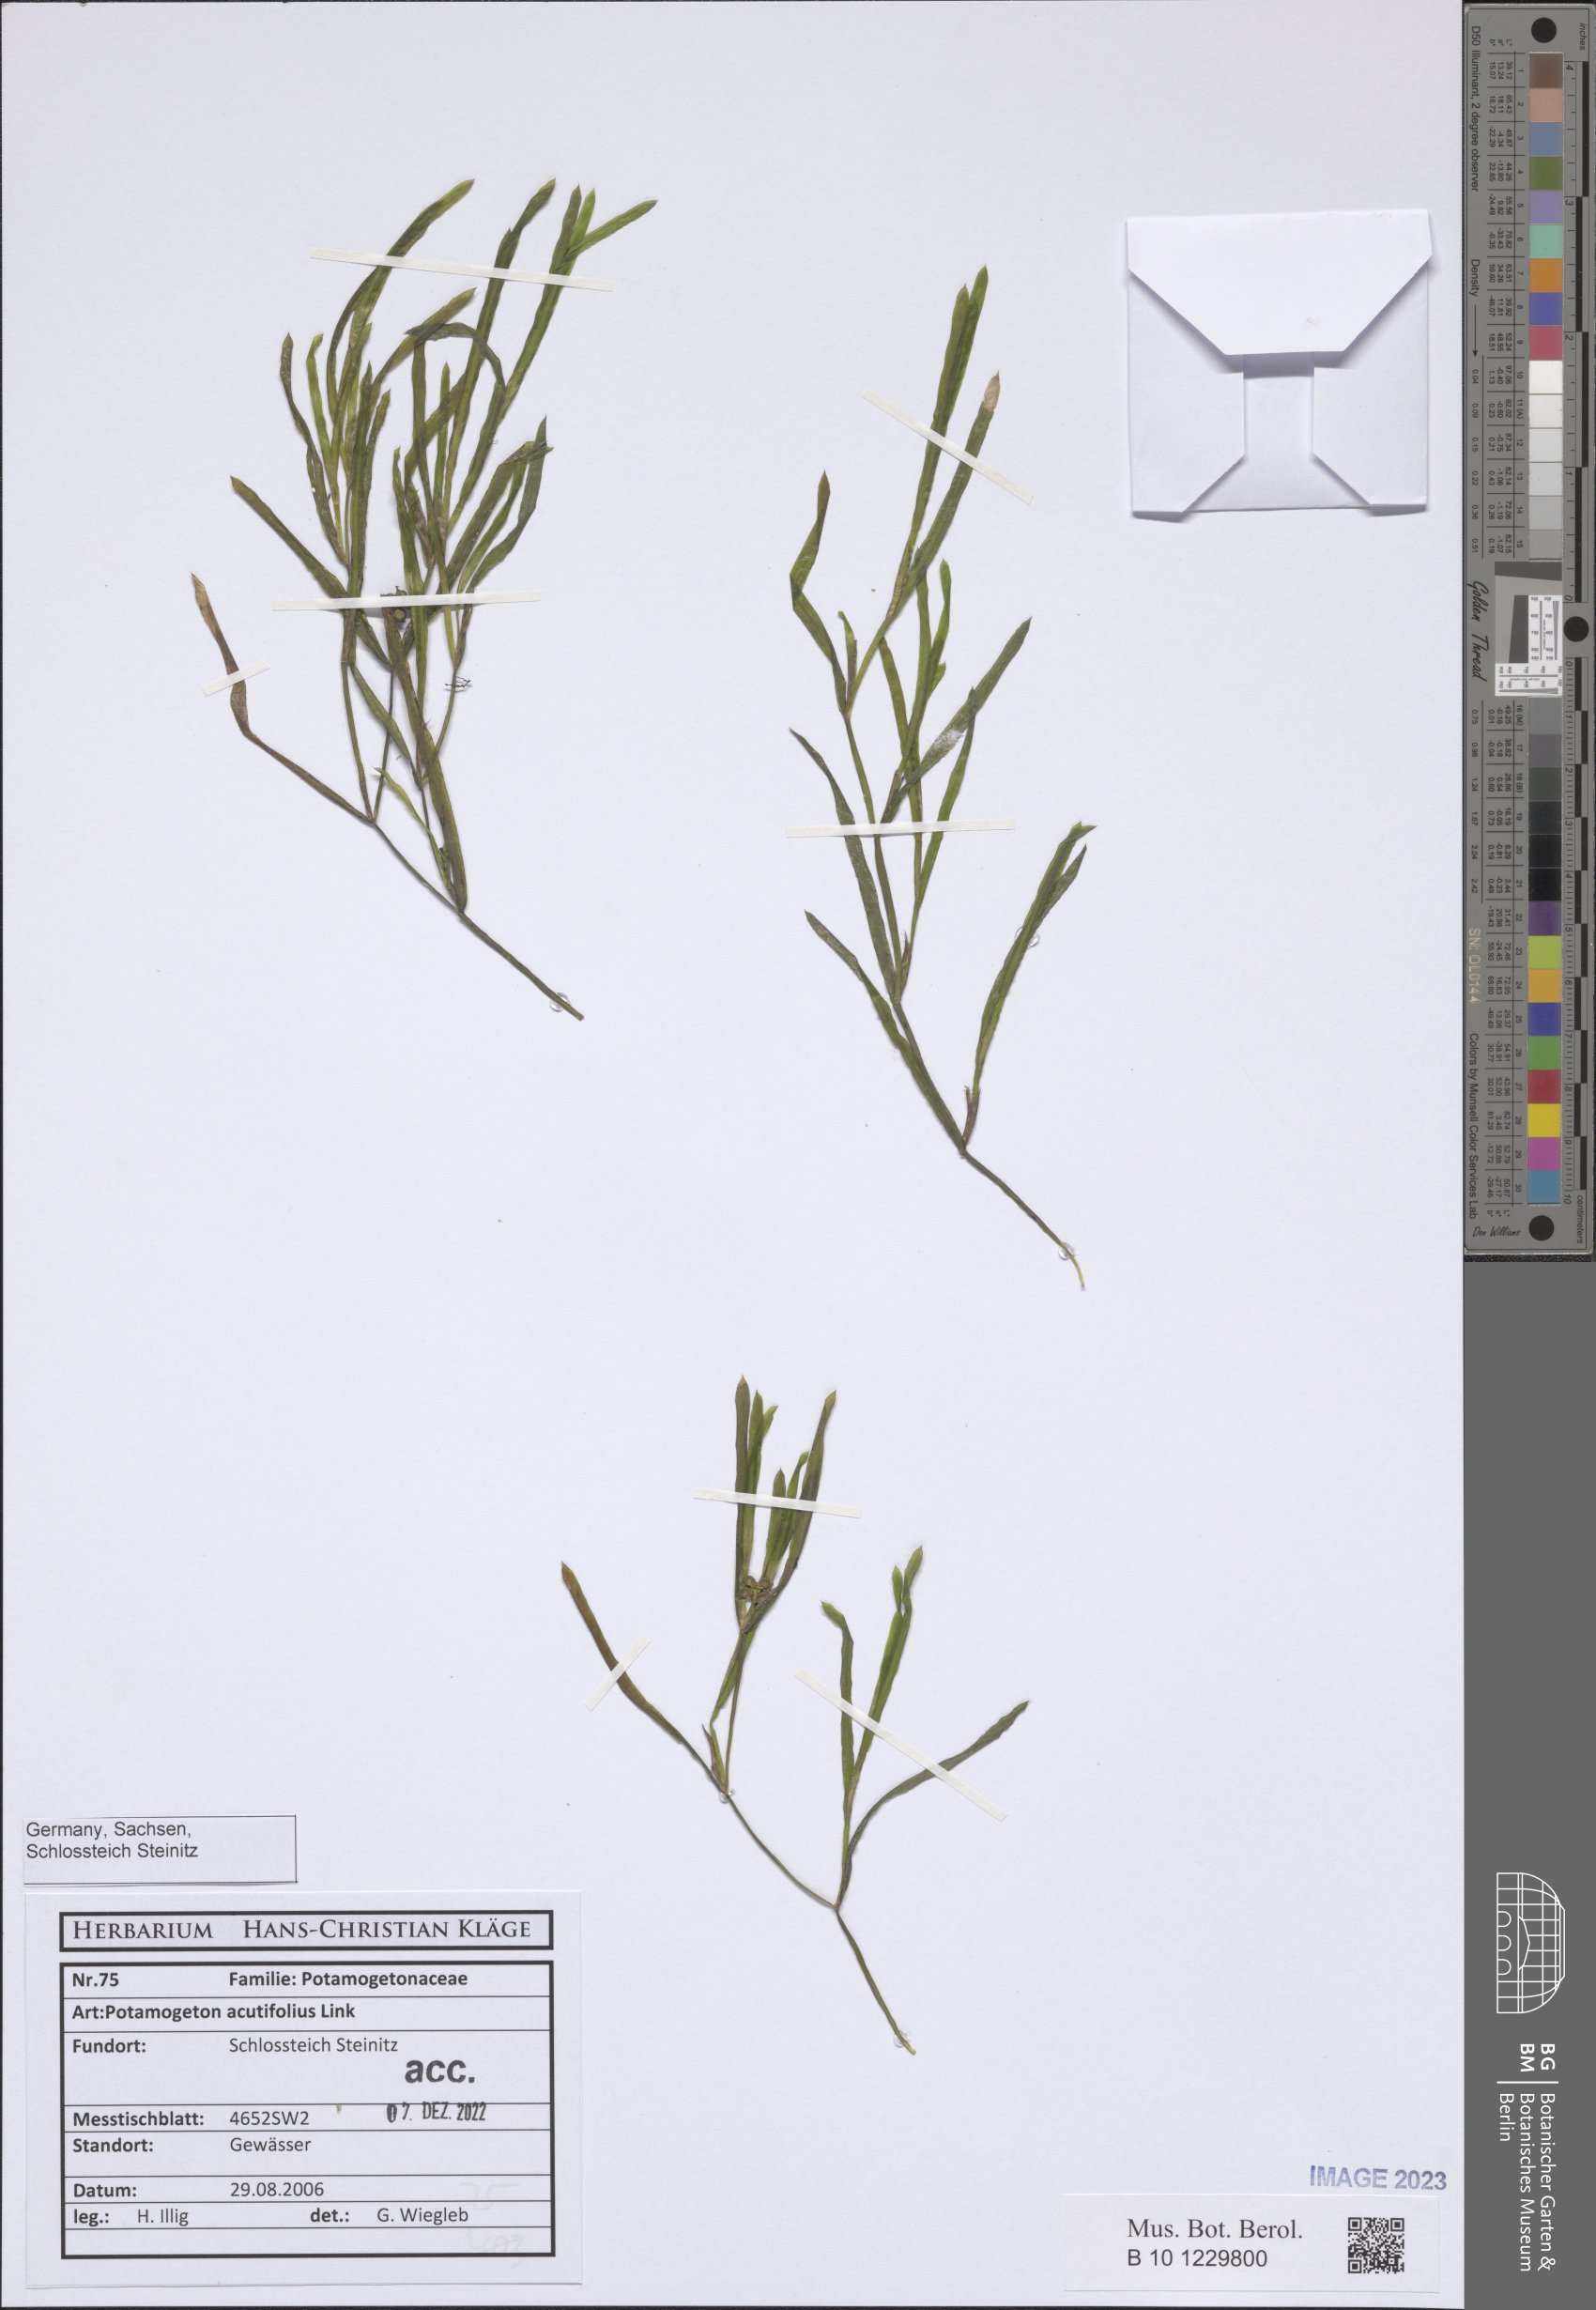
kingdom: Plantae
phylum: Tracheophyta
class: Liliopsida
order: Alismatales
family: Potamogetonaceae
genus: Potamogeton
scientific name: Potamogeton acutifolius
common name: Sharp-leaved pondweed
